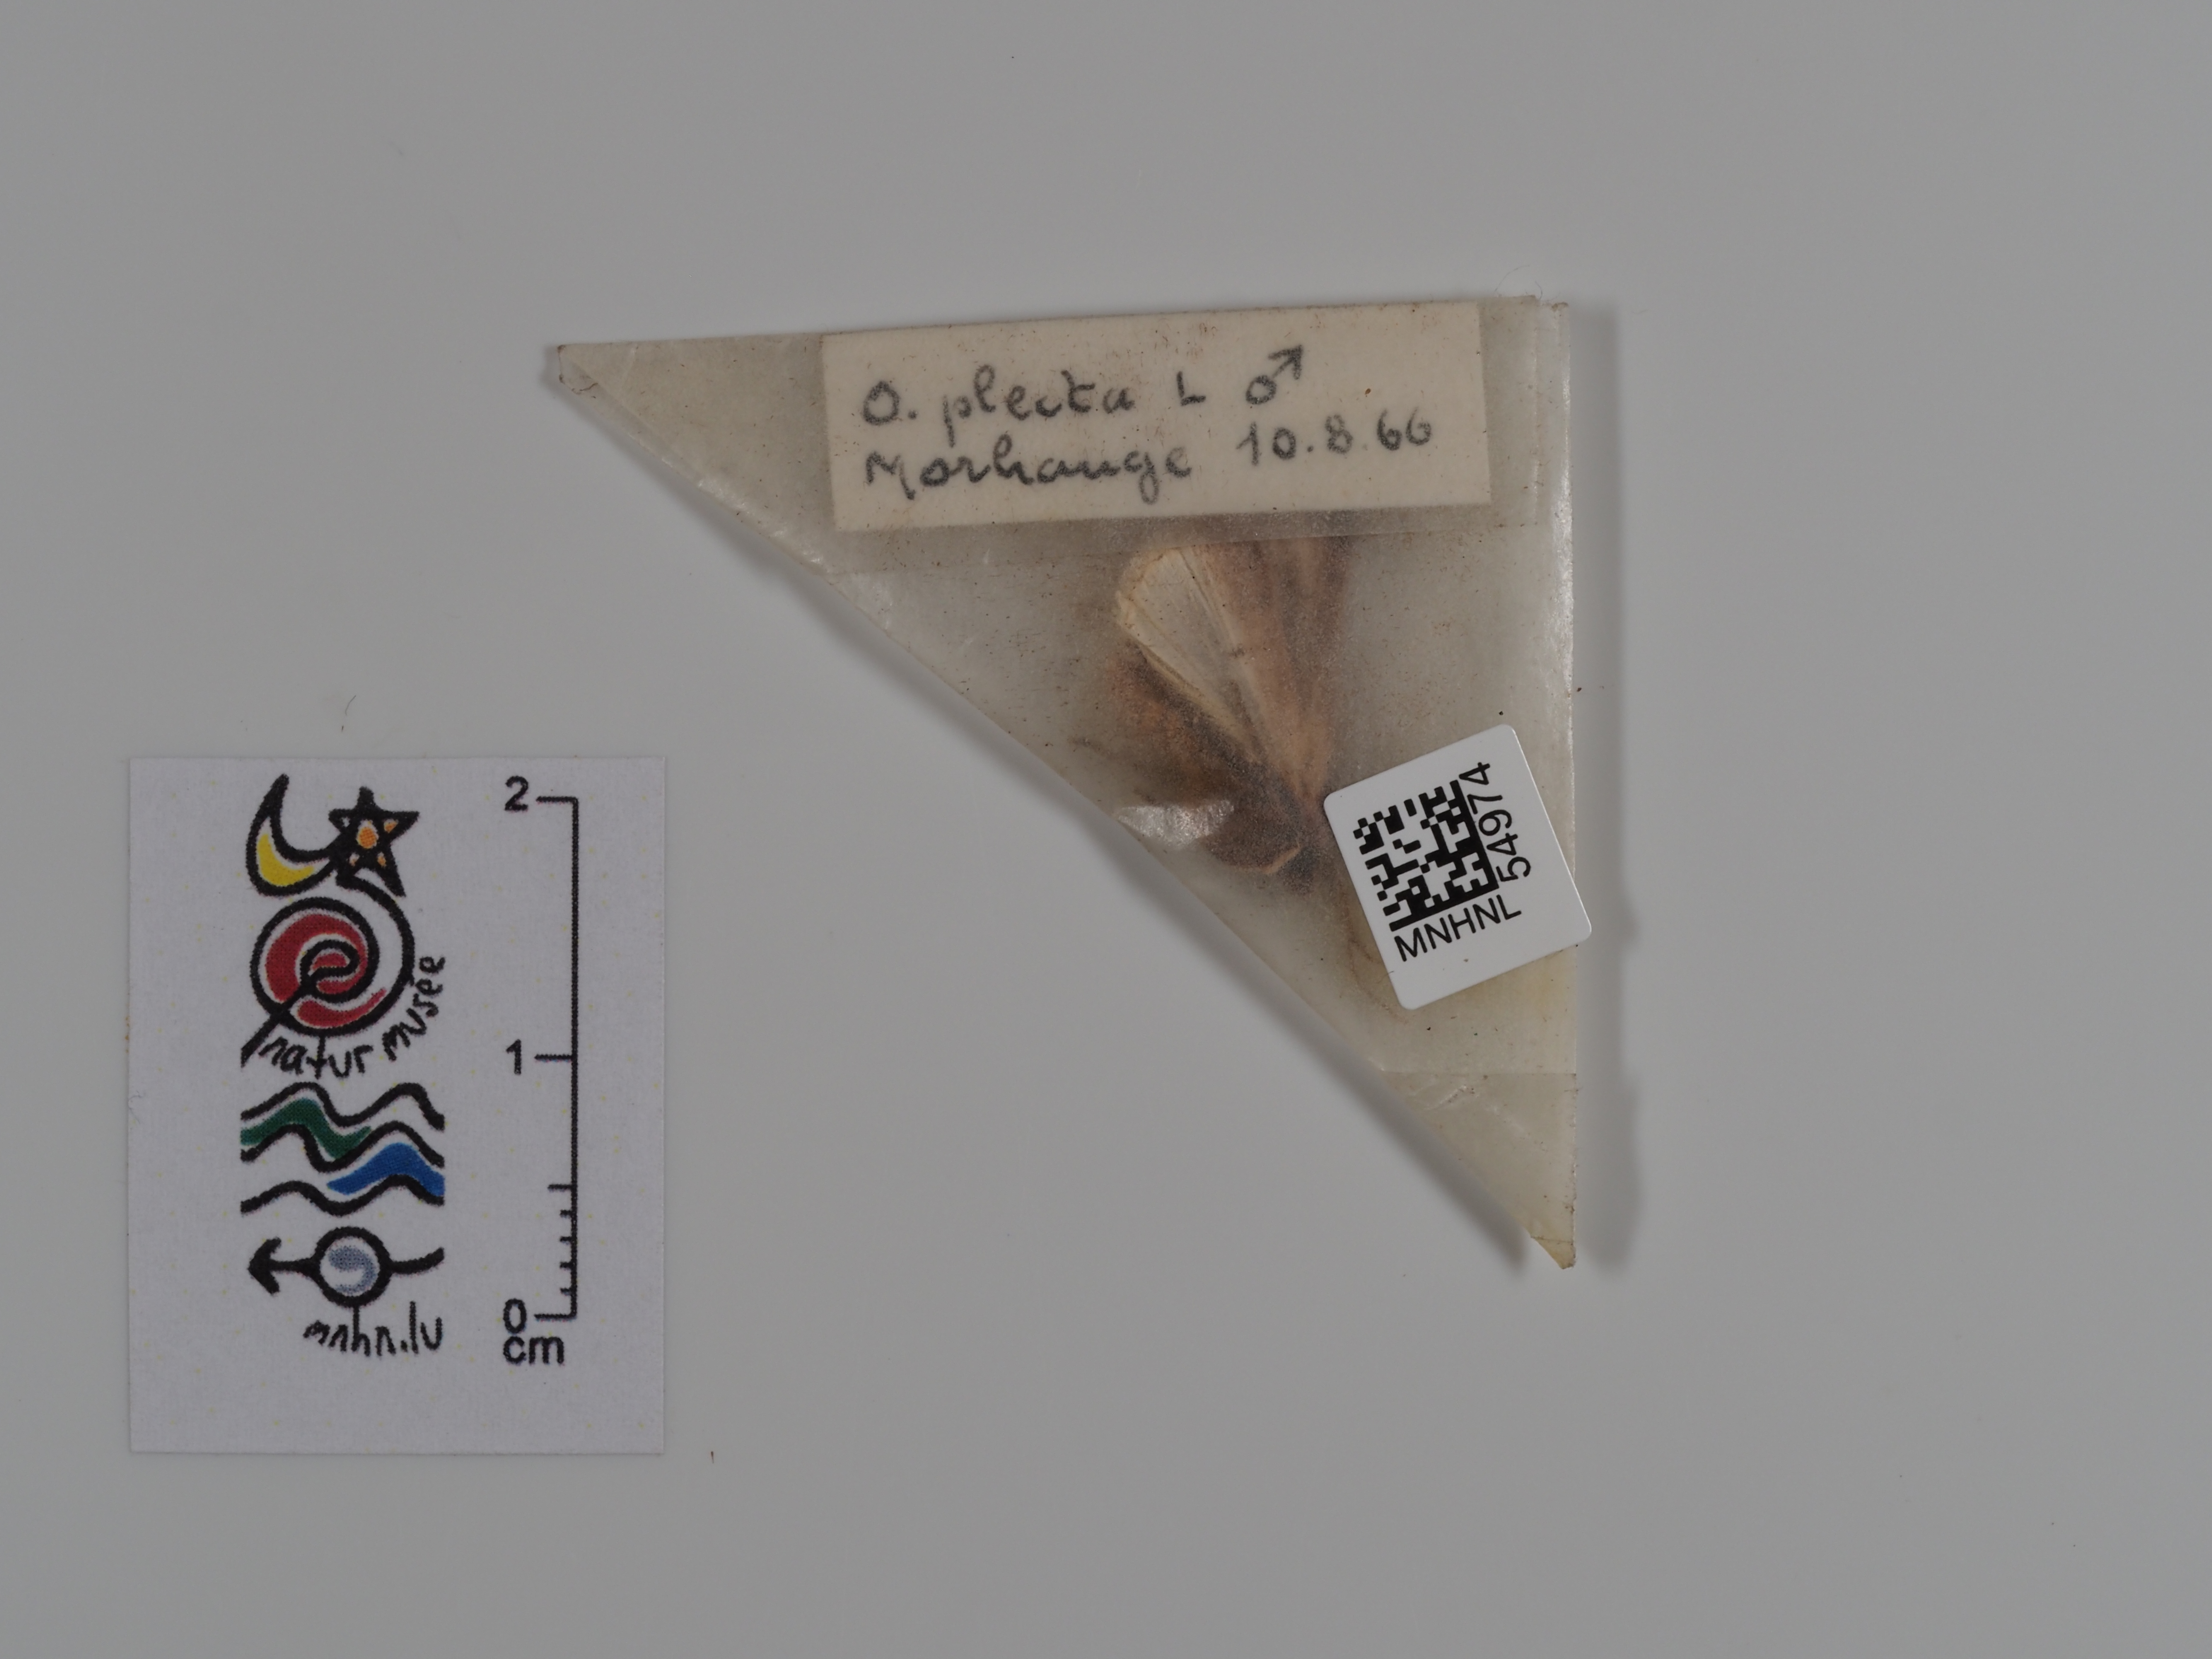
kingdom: Animalia
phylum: Arthropoda
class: Insecta
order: Lepidoptera
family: Noctuidae
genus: Ochropleura
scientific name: Ochropleura plecta
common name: Flame shoulder
